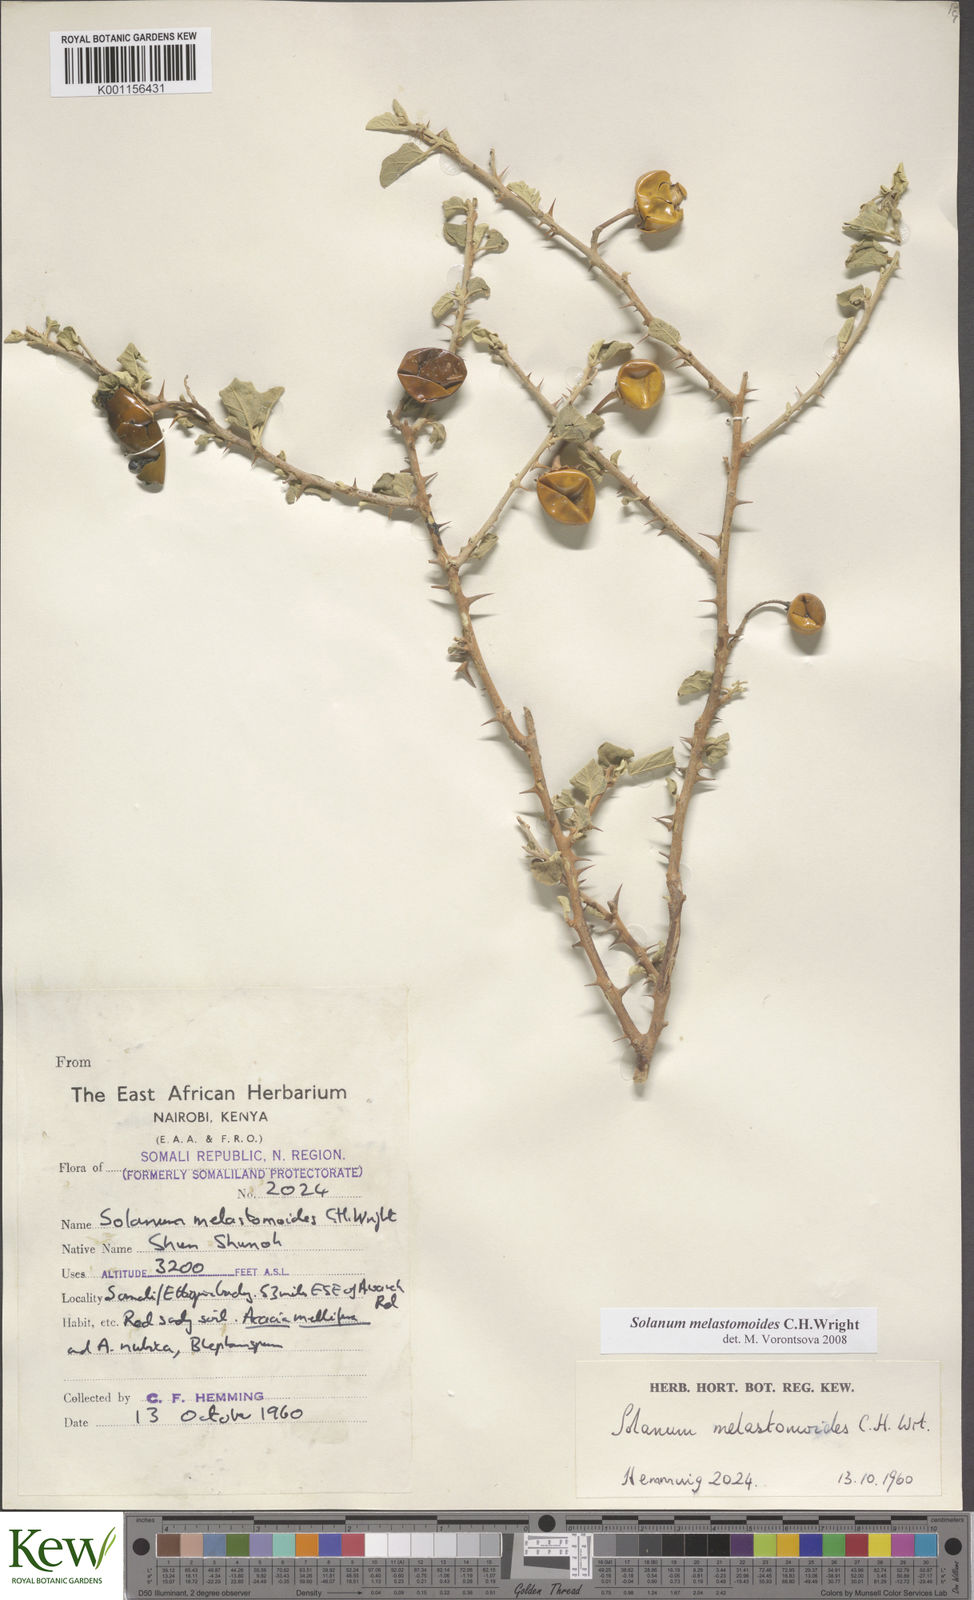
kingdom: Plantae
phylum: Tracheophyta
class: Magnoliopsida
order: Solanales
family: Solanaceae
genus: Solanum
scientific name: Solanum melastomoides
